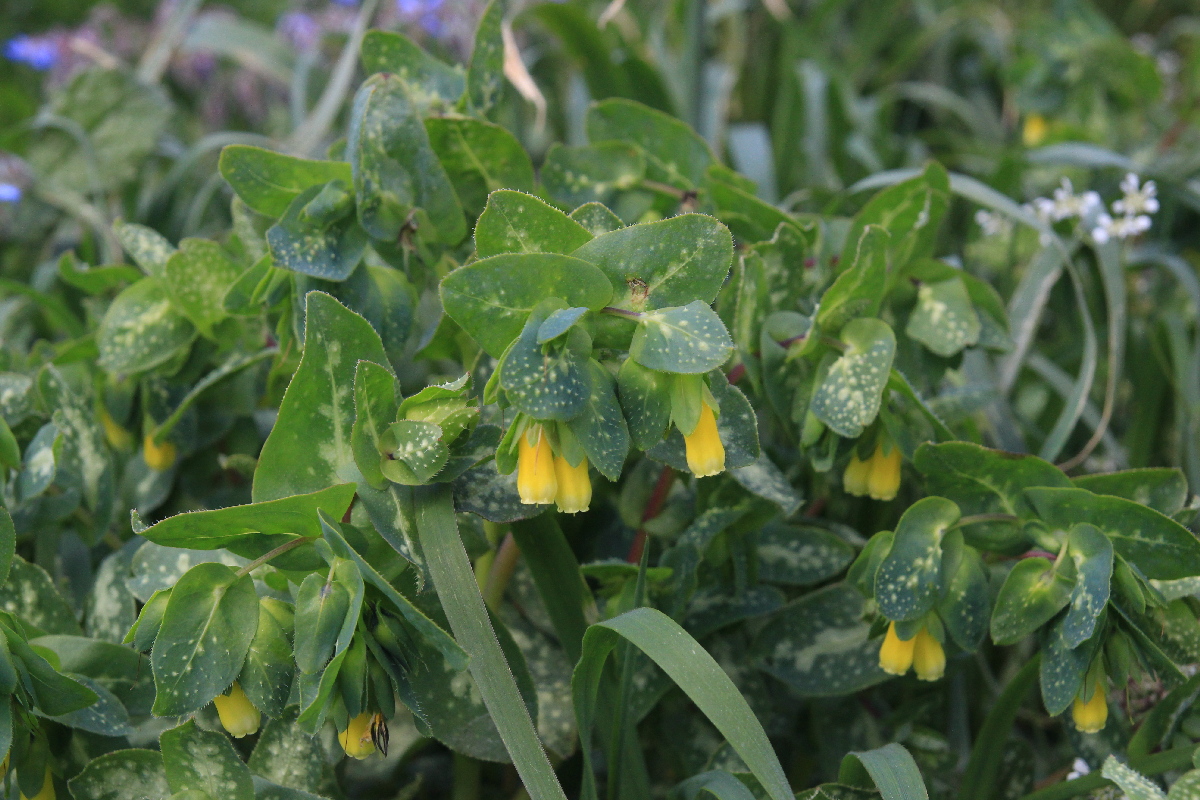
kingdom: Plantae
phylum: Tracheophyta
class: Magnoliopsida
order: Boraginales
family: Boraginaceae
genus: Cerinthe
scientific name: Cerinthe major
